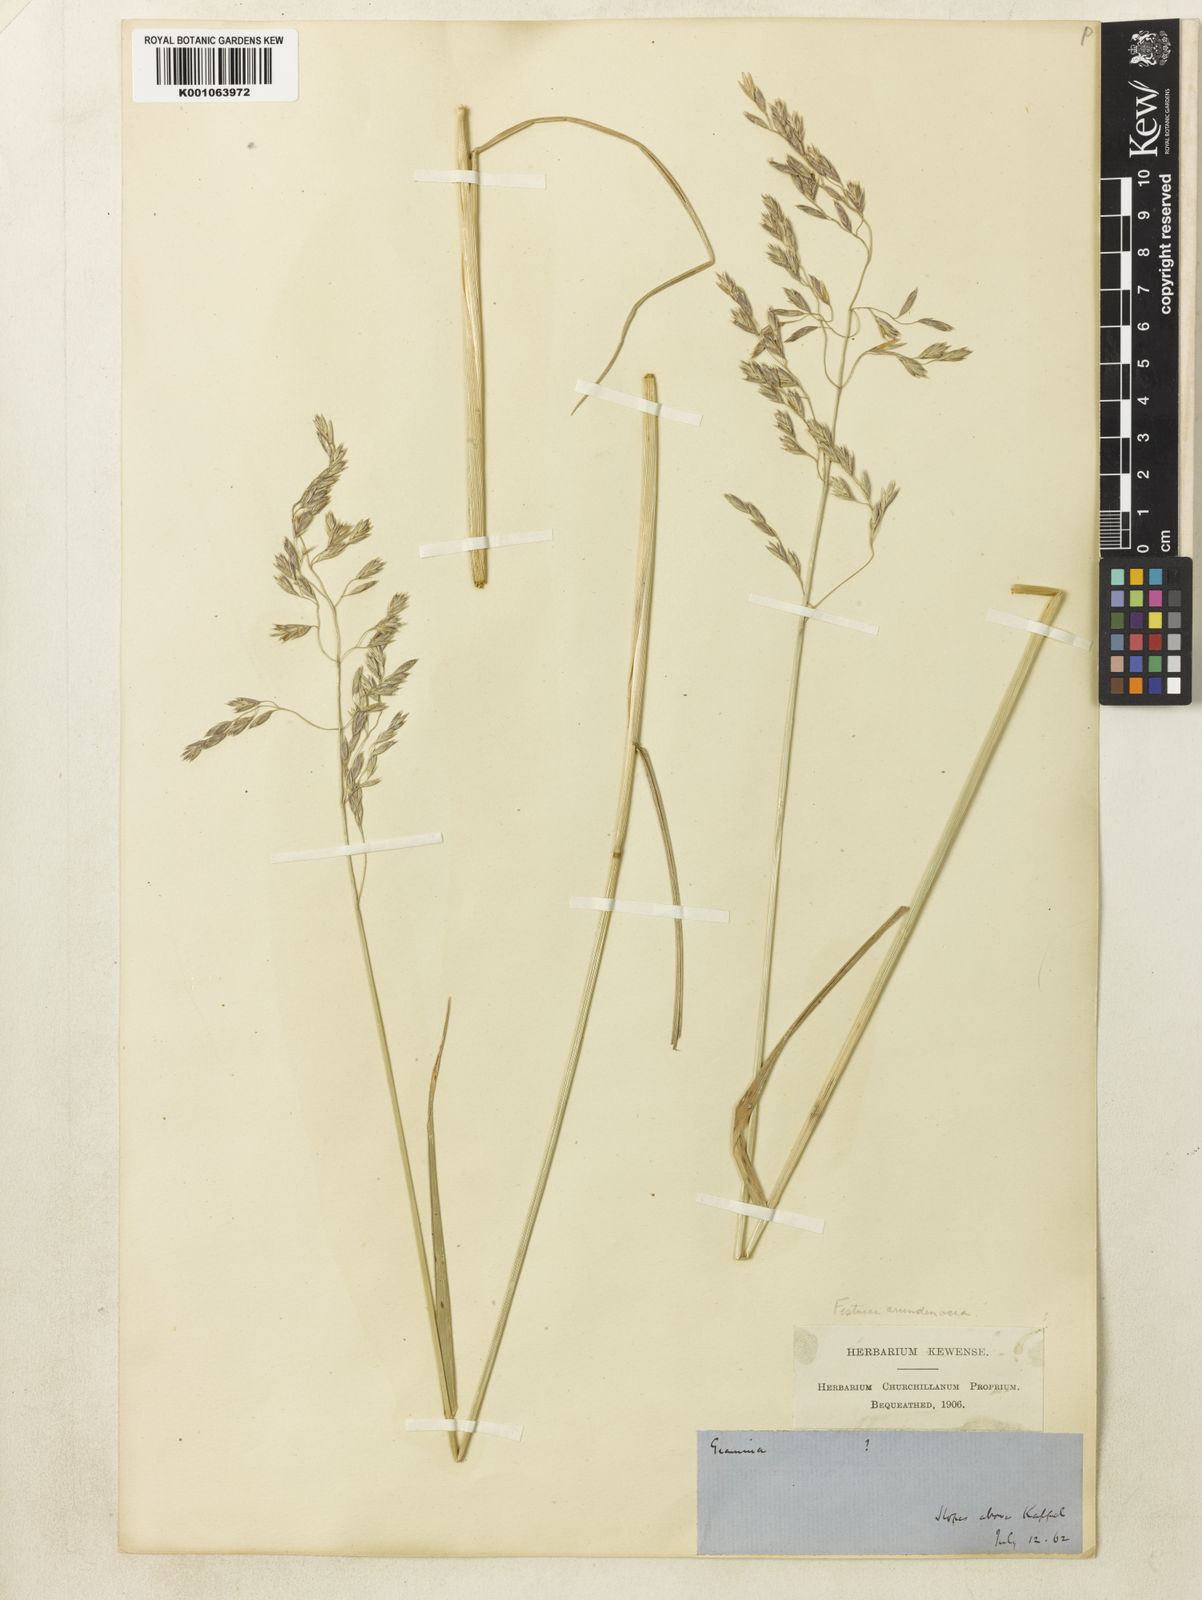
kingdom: Plantae
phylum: Tracheophyta
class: Liliopsida
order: Poales
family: Poaceae
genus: Lolium
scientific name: Lolium arundinaceum
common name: Reed fescue
